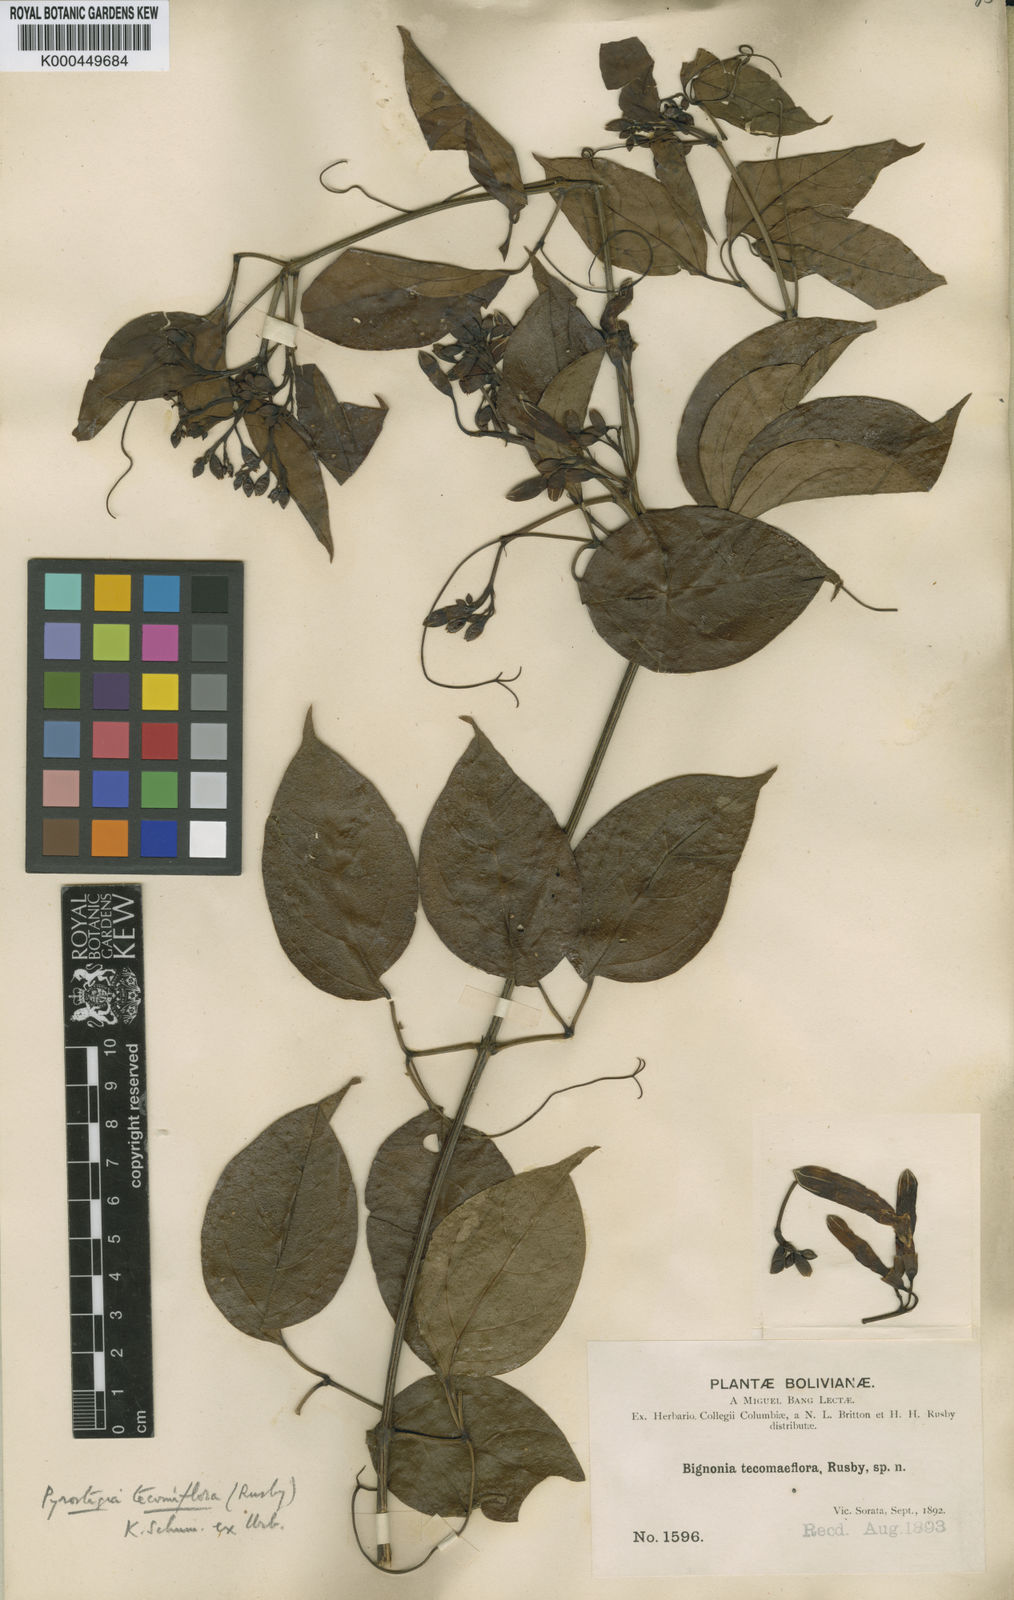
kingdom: Plantae
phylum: Tracheophyta
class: Magnoliopsida
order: Lamiales
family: Bignoniaceae
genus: Pyrostegia
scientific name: Pyrostegia venusta
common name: Flamevine
